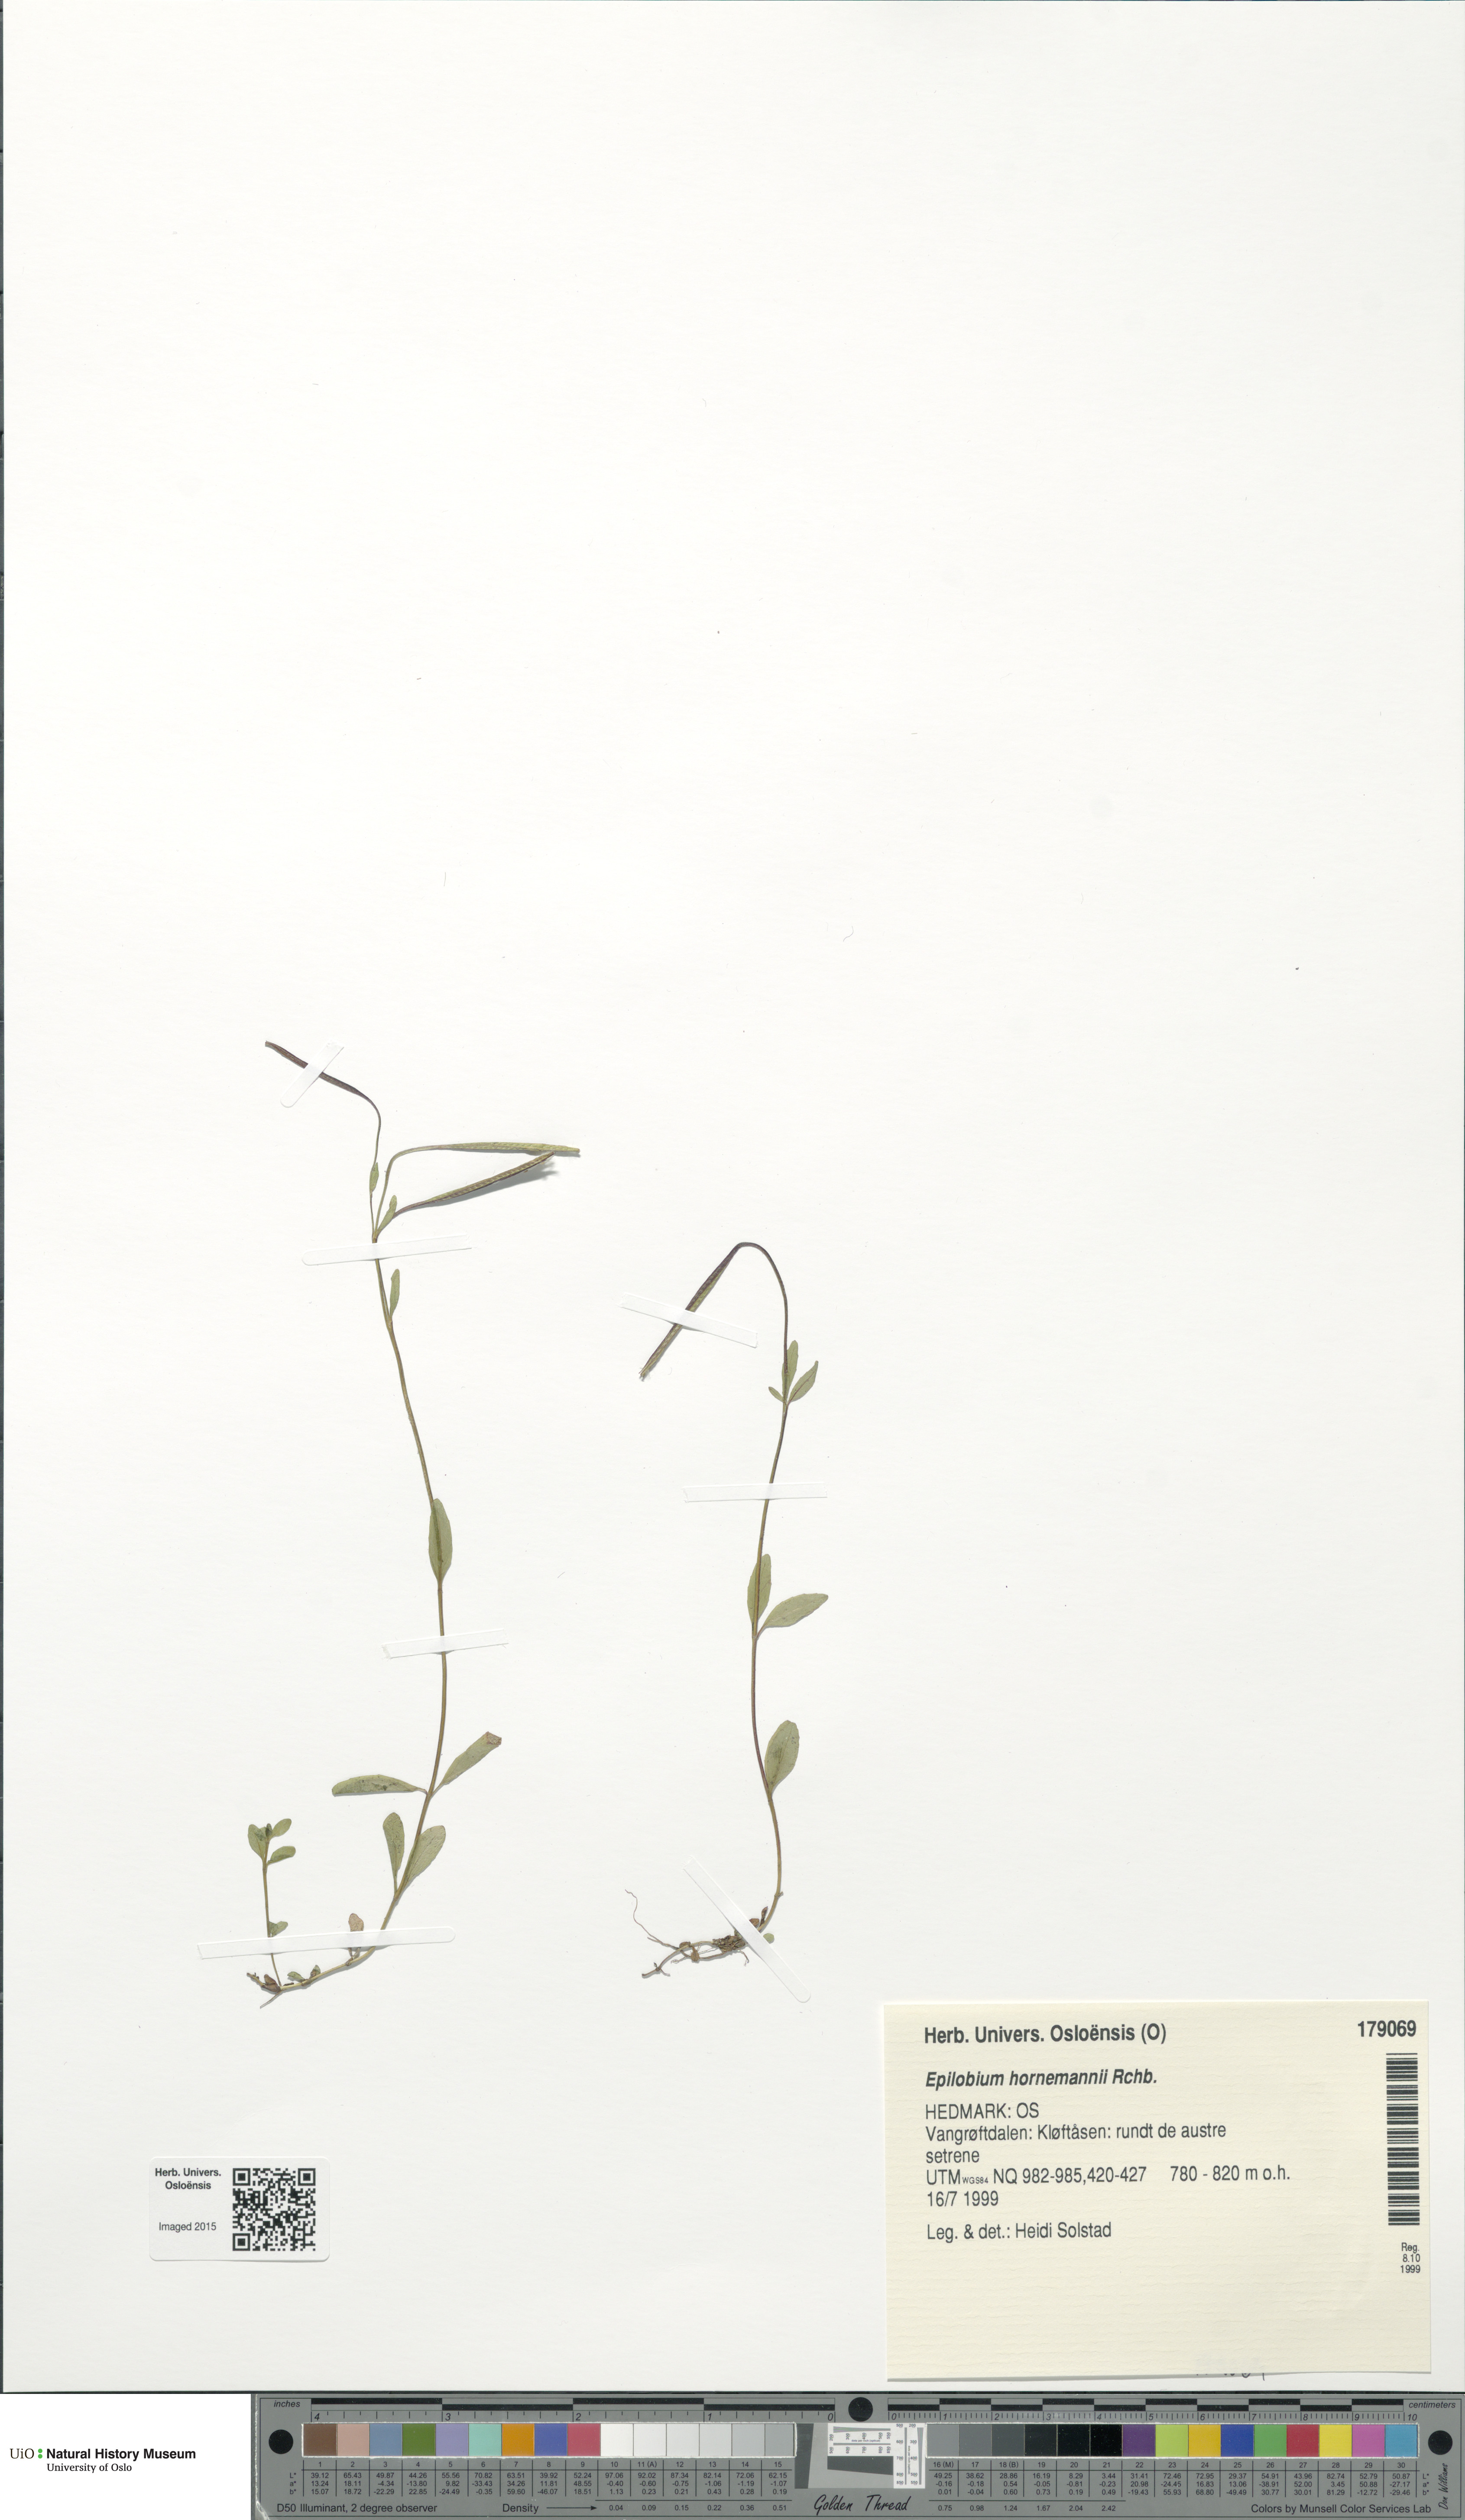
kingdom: Plantae
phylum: Tracheophyta
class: Magnoliopsida
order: Myrtales
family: Onagraceae
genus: Epilobium
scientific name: Epilobium hornemannii
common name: Hornemann's willowherb
